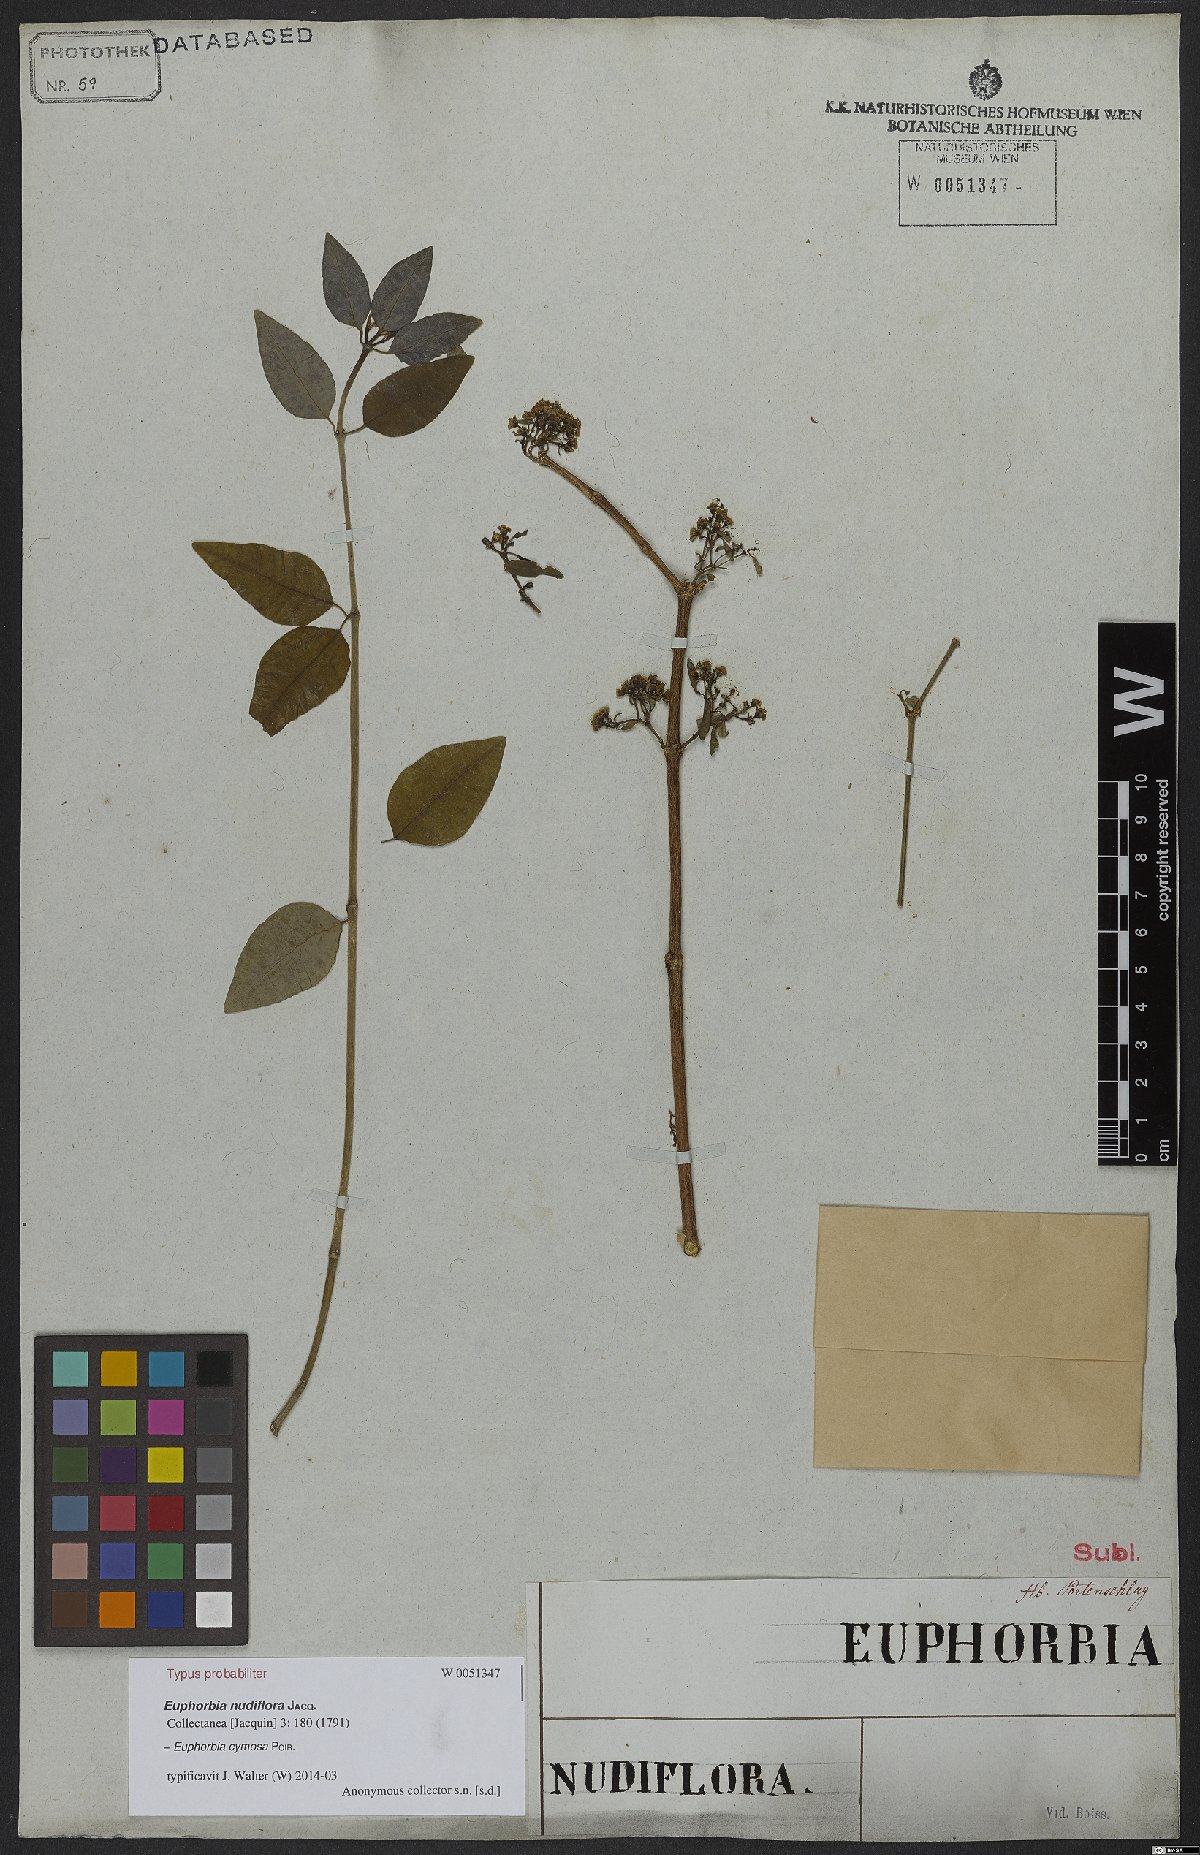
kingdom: Plantae
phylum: Tracheophyta
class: Magnoliopsida
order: Malpighiales
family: Euphorbiaceae
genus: Euphorbia
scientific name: Euphorbia cymosa
